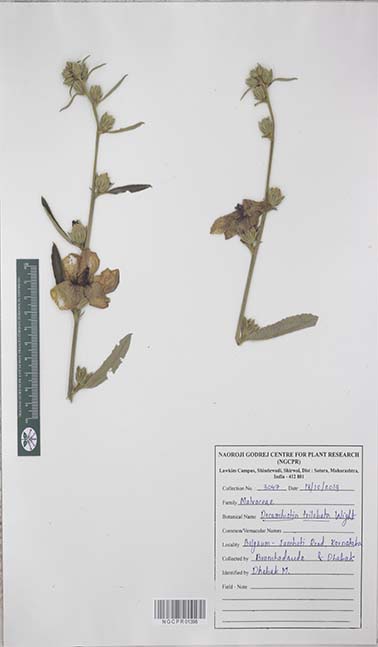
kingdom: Plantae
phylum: Tracheophyta
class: Magnoliopsida
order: Malvales
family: Malvaceae
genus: Decaschistia
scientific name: Decaschistia trilobata
